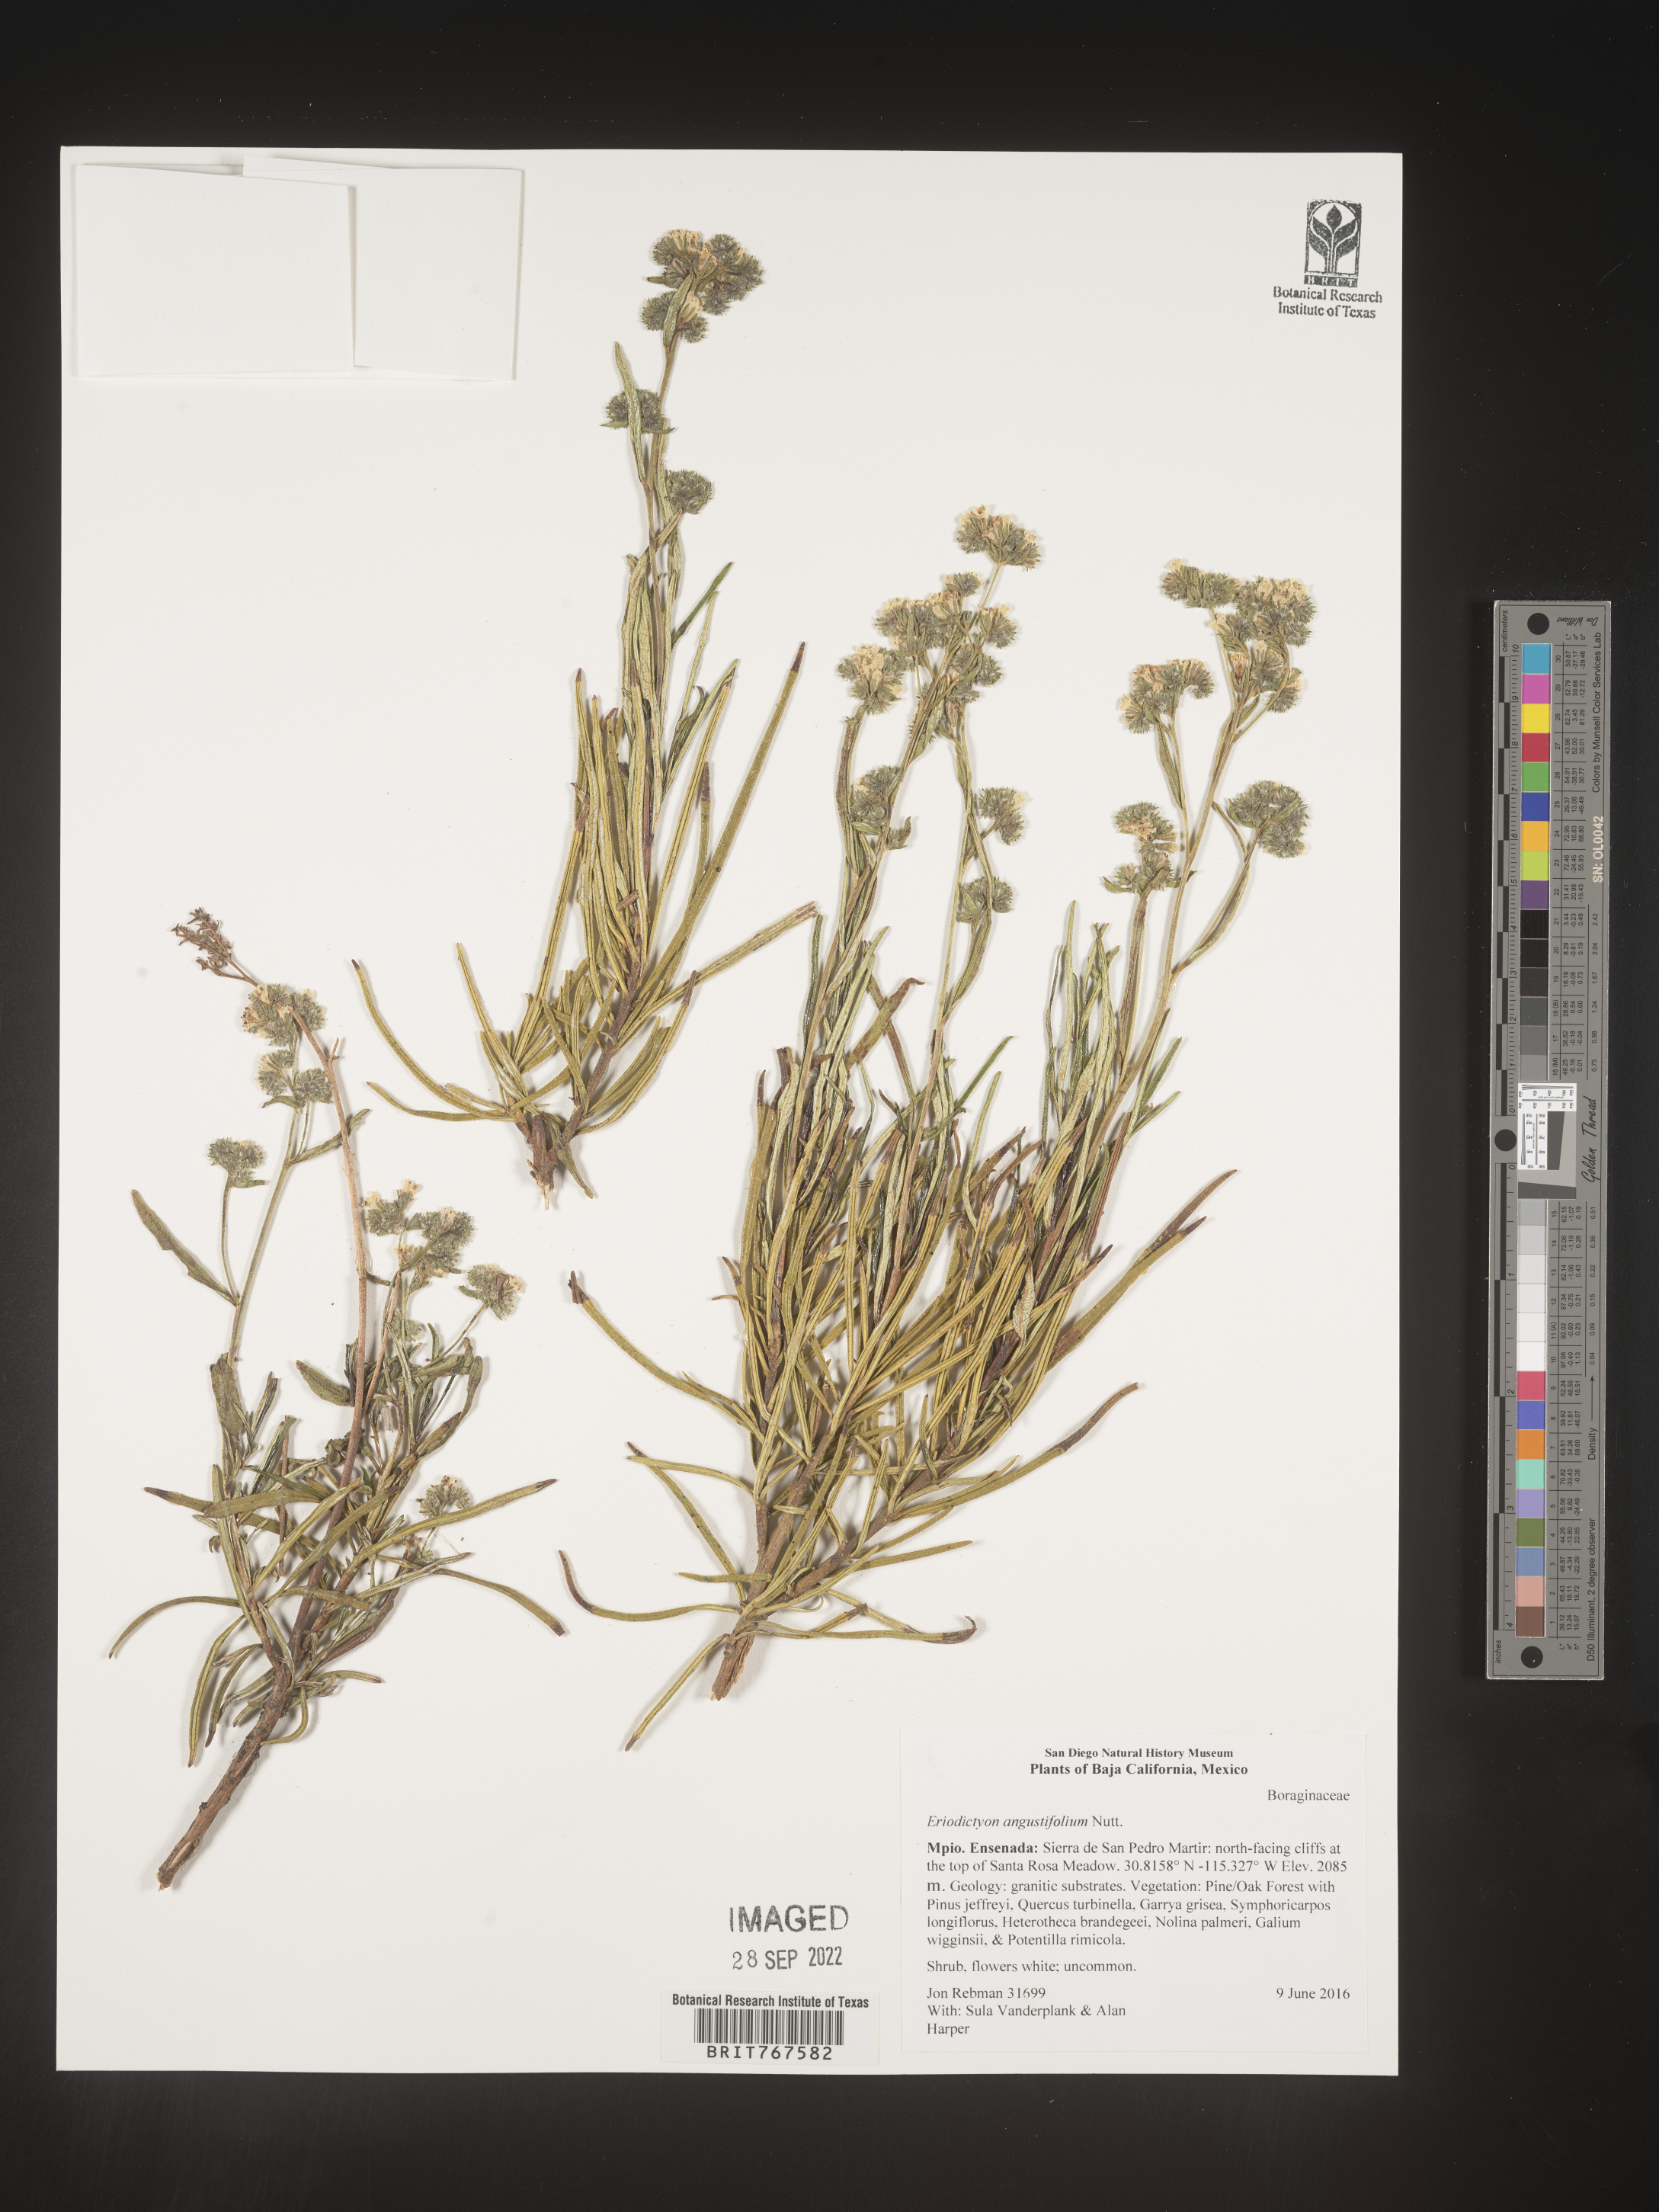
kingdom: Plantae
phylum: Tracheophyta
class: Magnoliopsida
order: Boraginales
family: Namaceae
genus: Eriodictyon
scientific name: Eriodictyon
